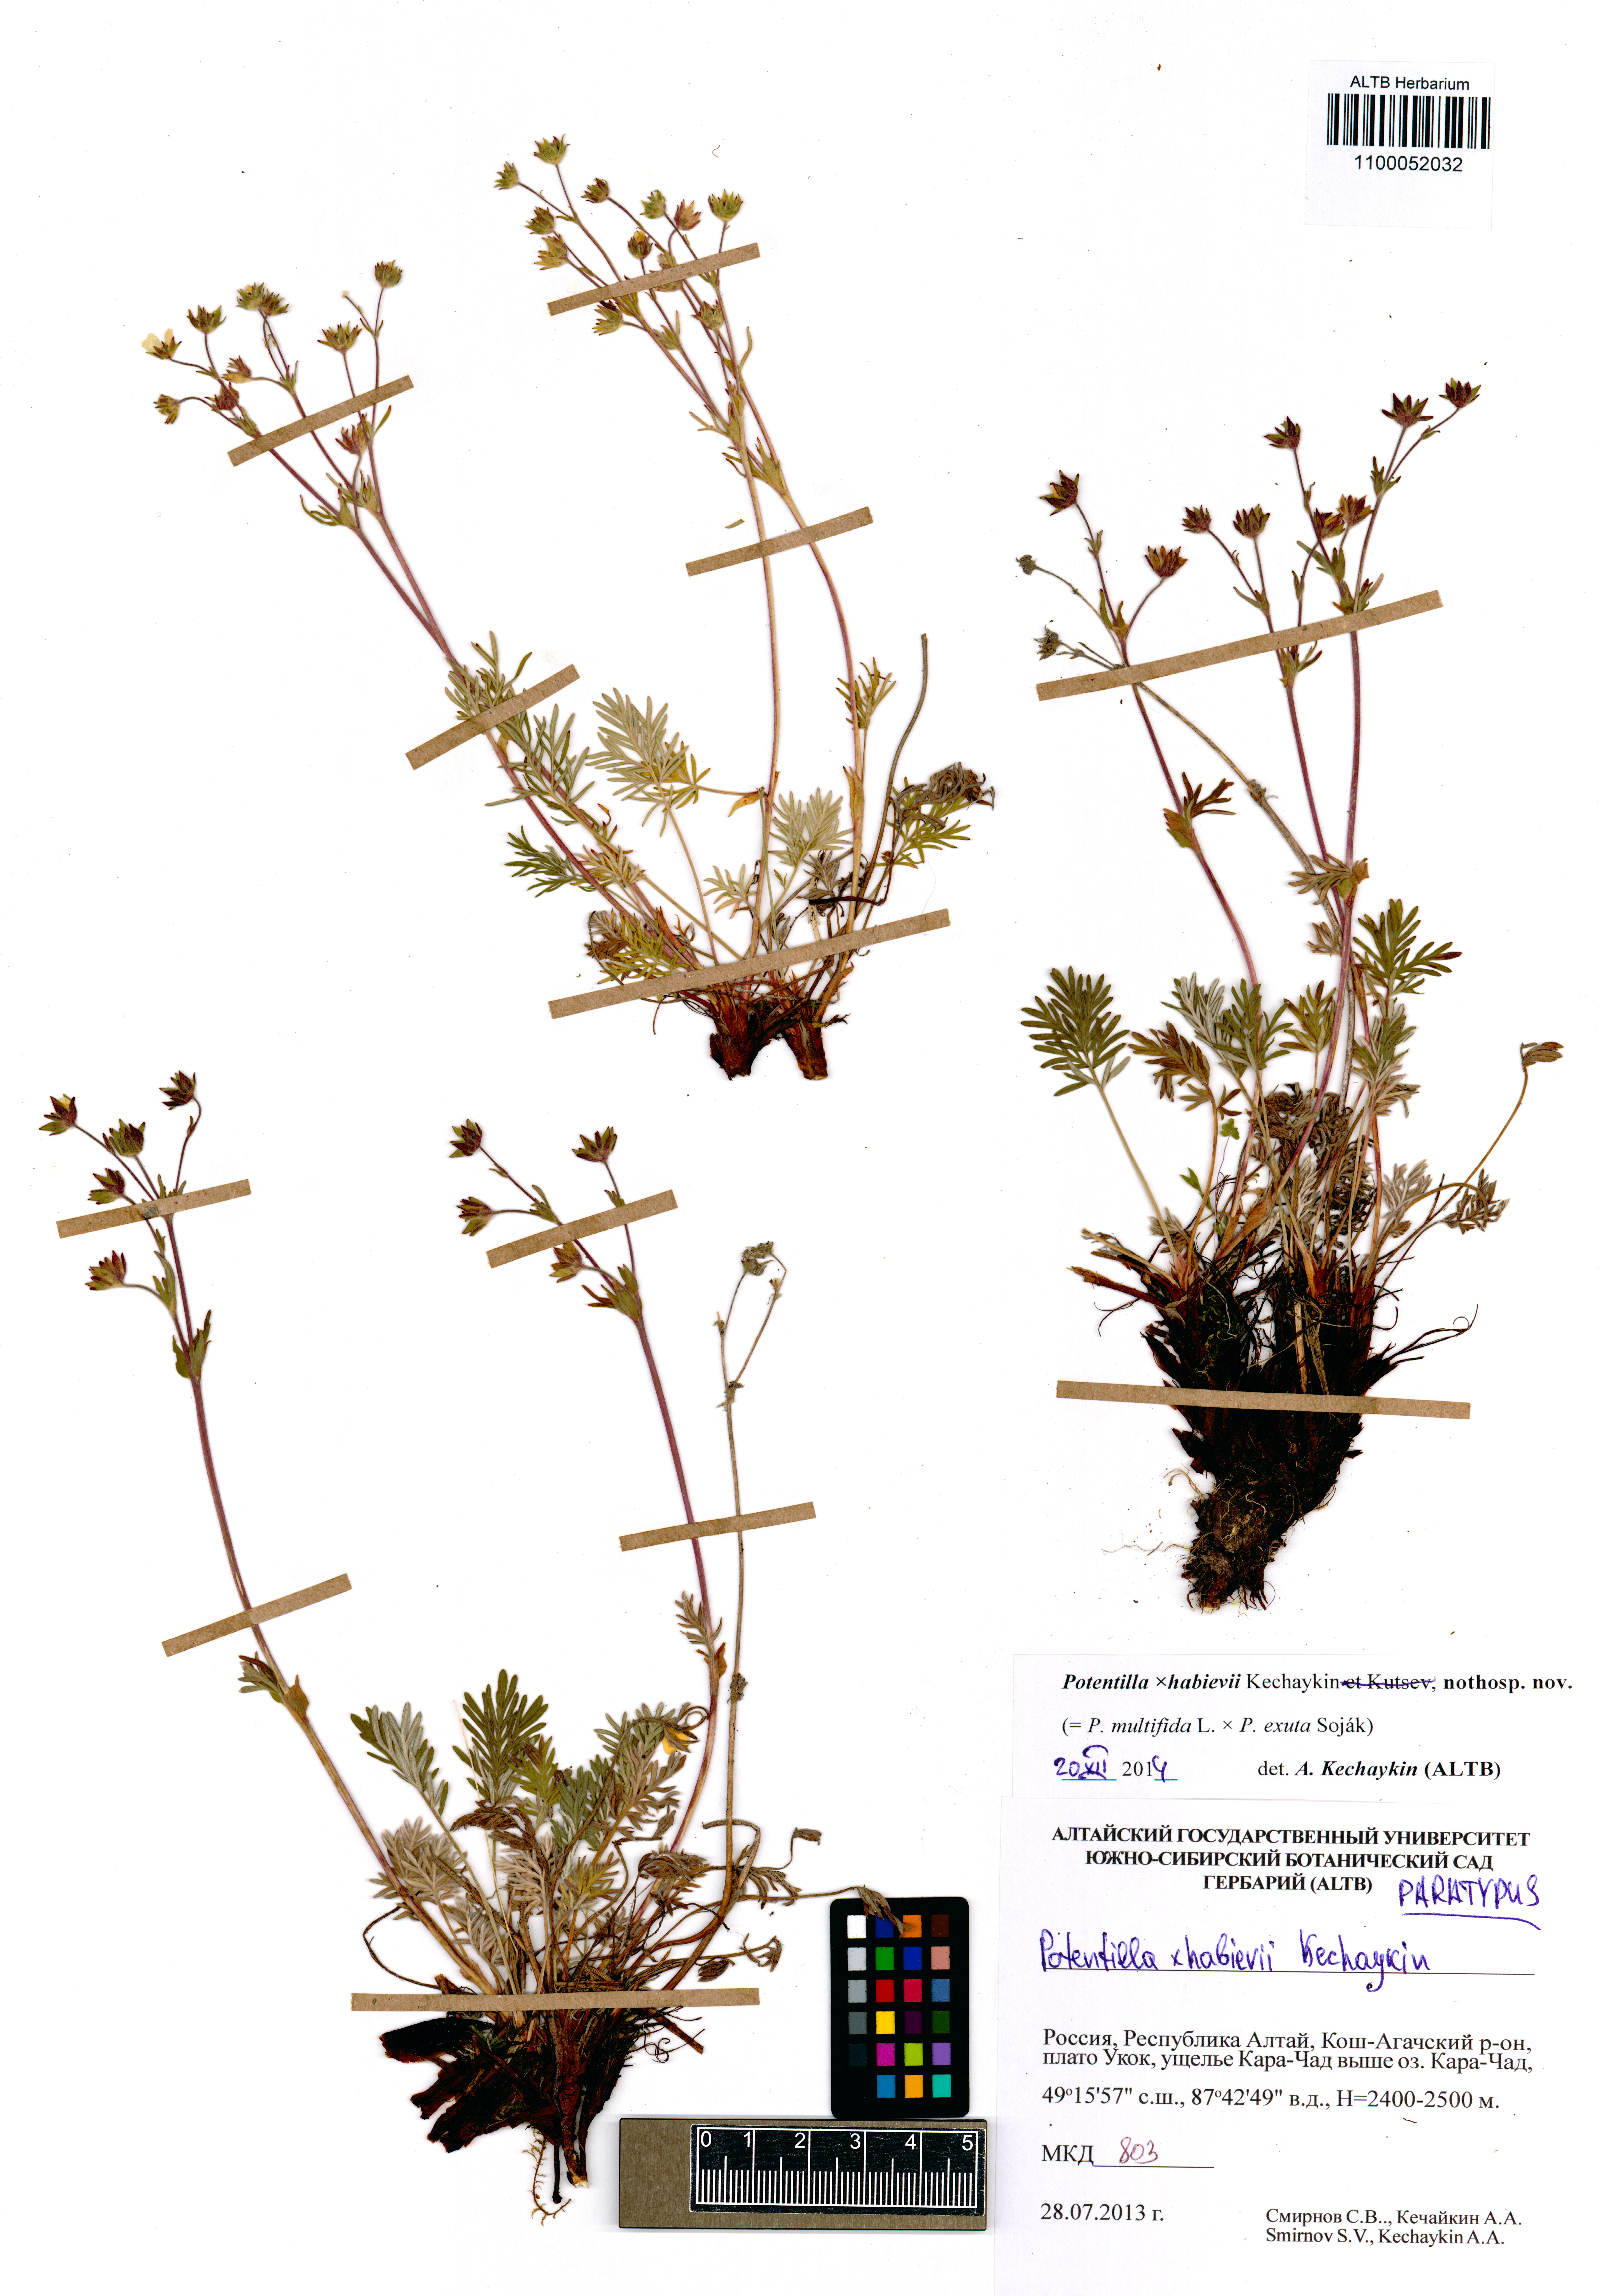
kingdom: Plantae
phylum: Tracheophyta
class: Magnoliopsida
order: Rosales
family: Rosaceae
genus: Potentilla
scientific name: Potentilla habievii
